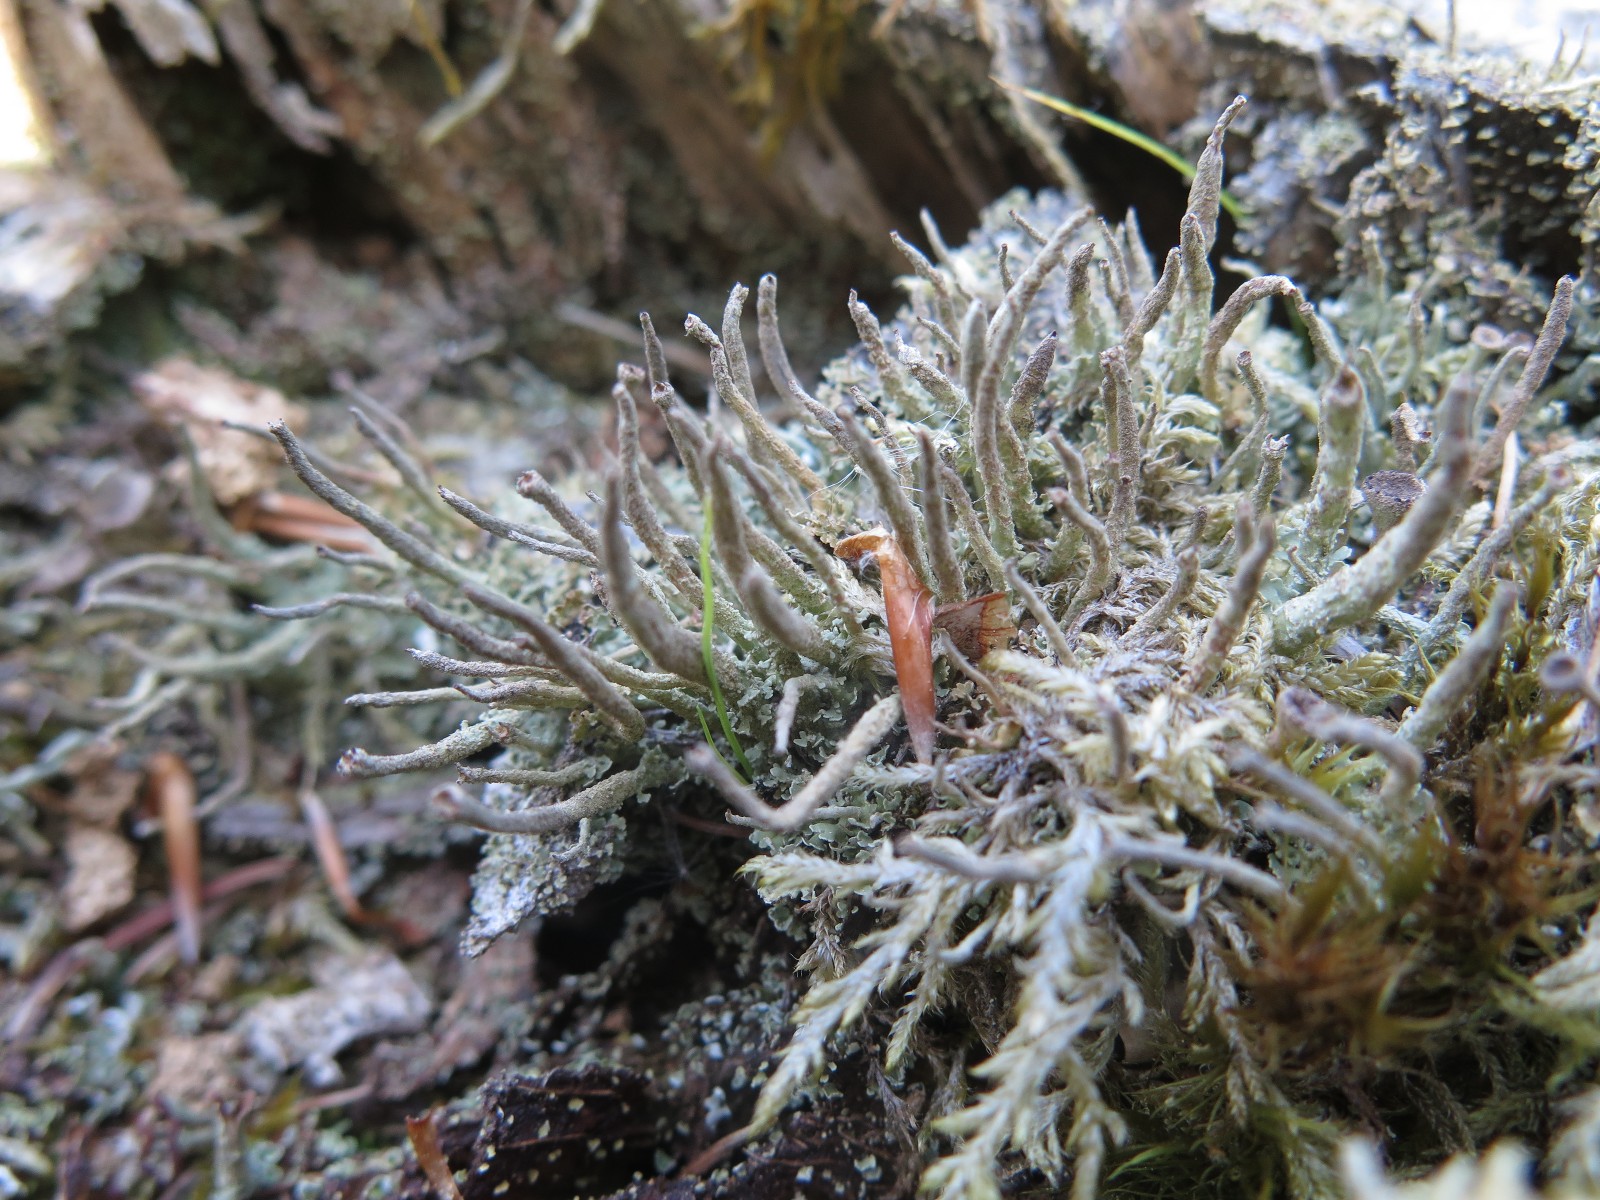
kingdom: Fungi
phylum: Ascomycota
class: Lecanoromycetes
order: Lecanorales
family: Cladoniaceae
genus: Cladonia
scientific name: Cladonia ochrochlora
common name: stød-bægerlav
